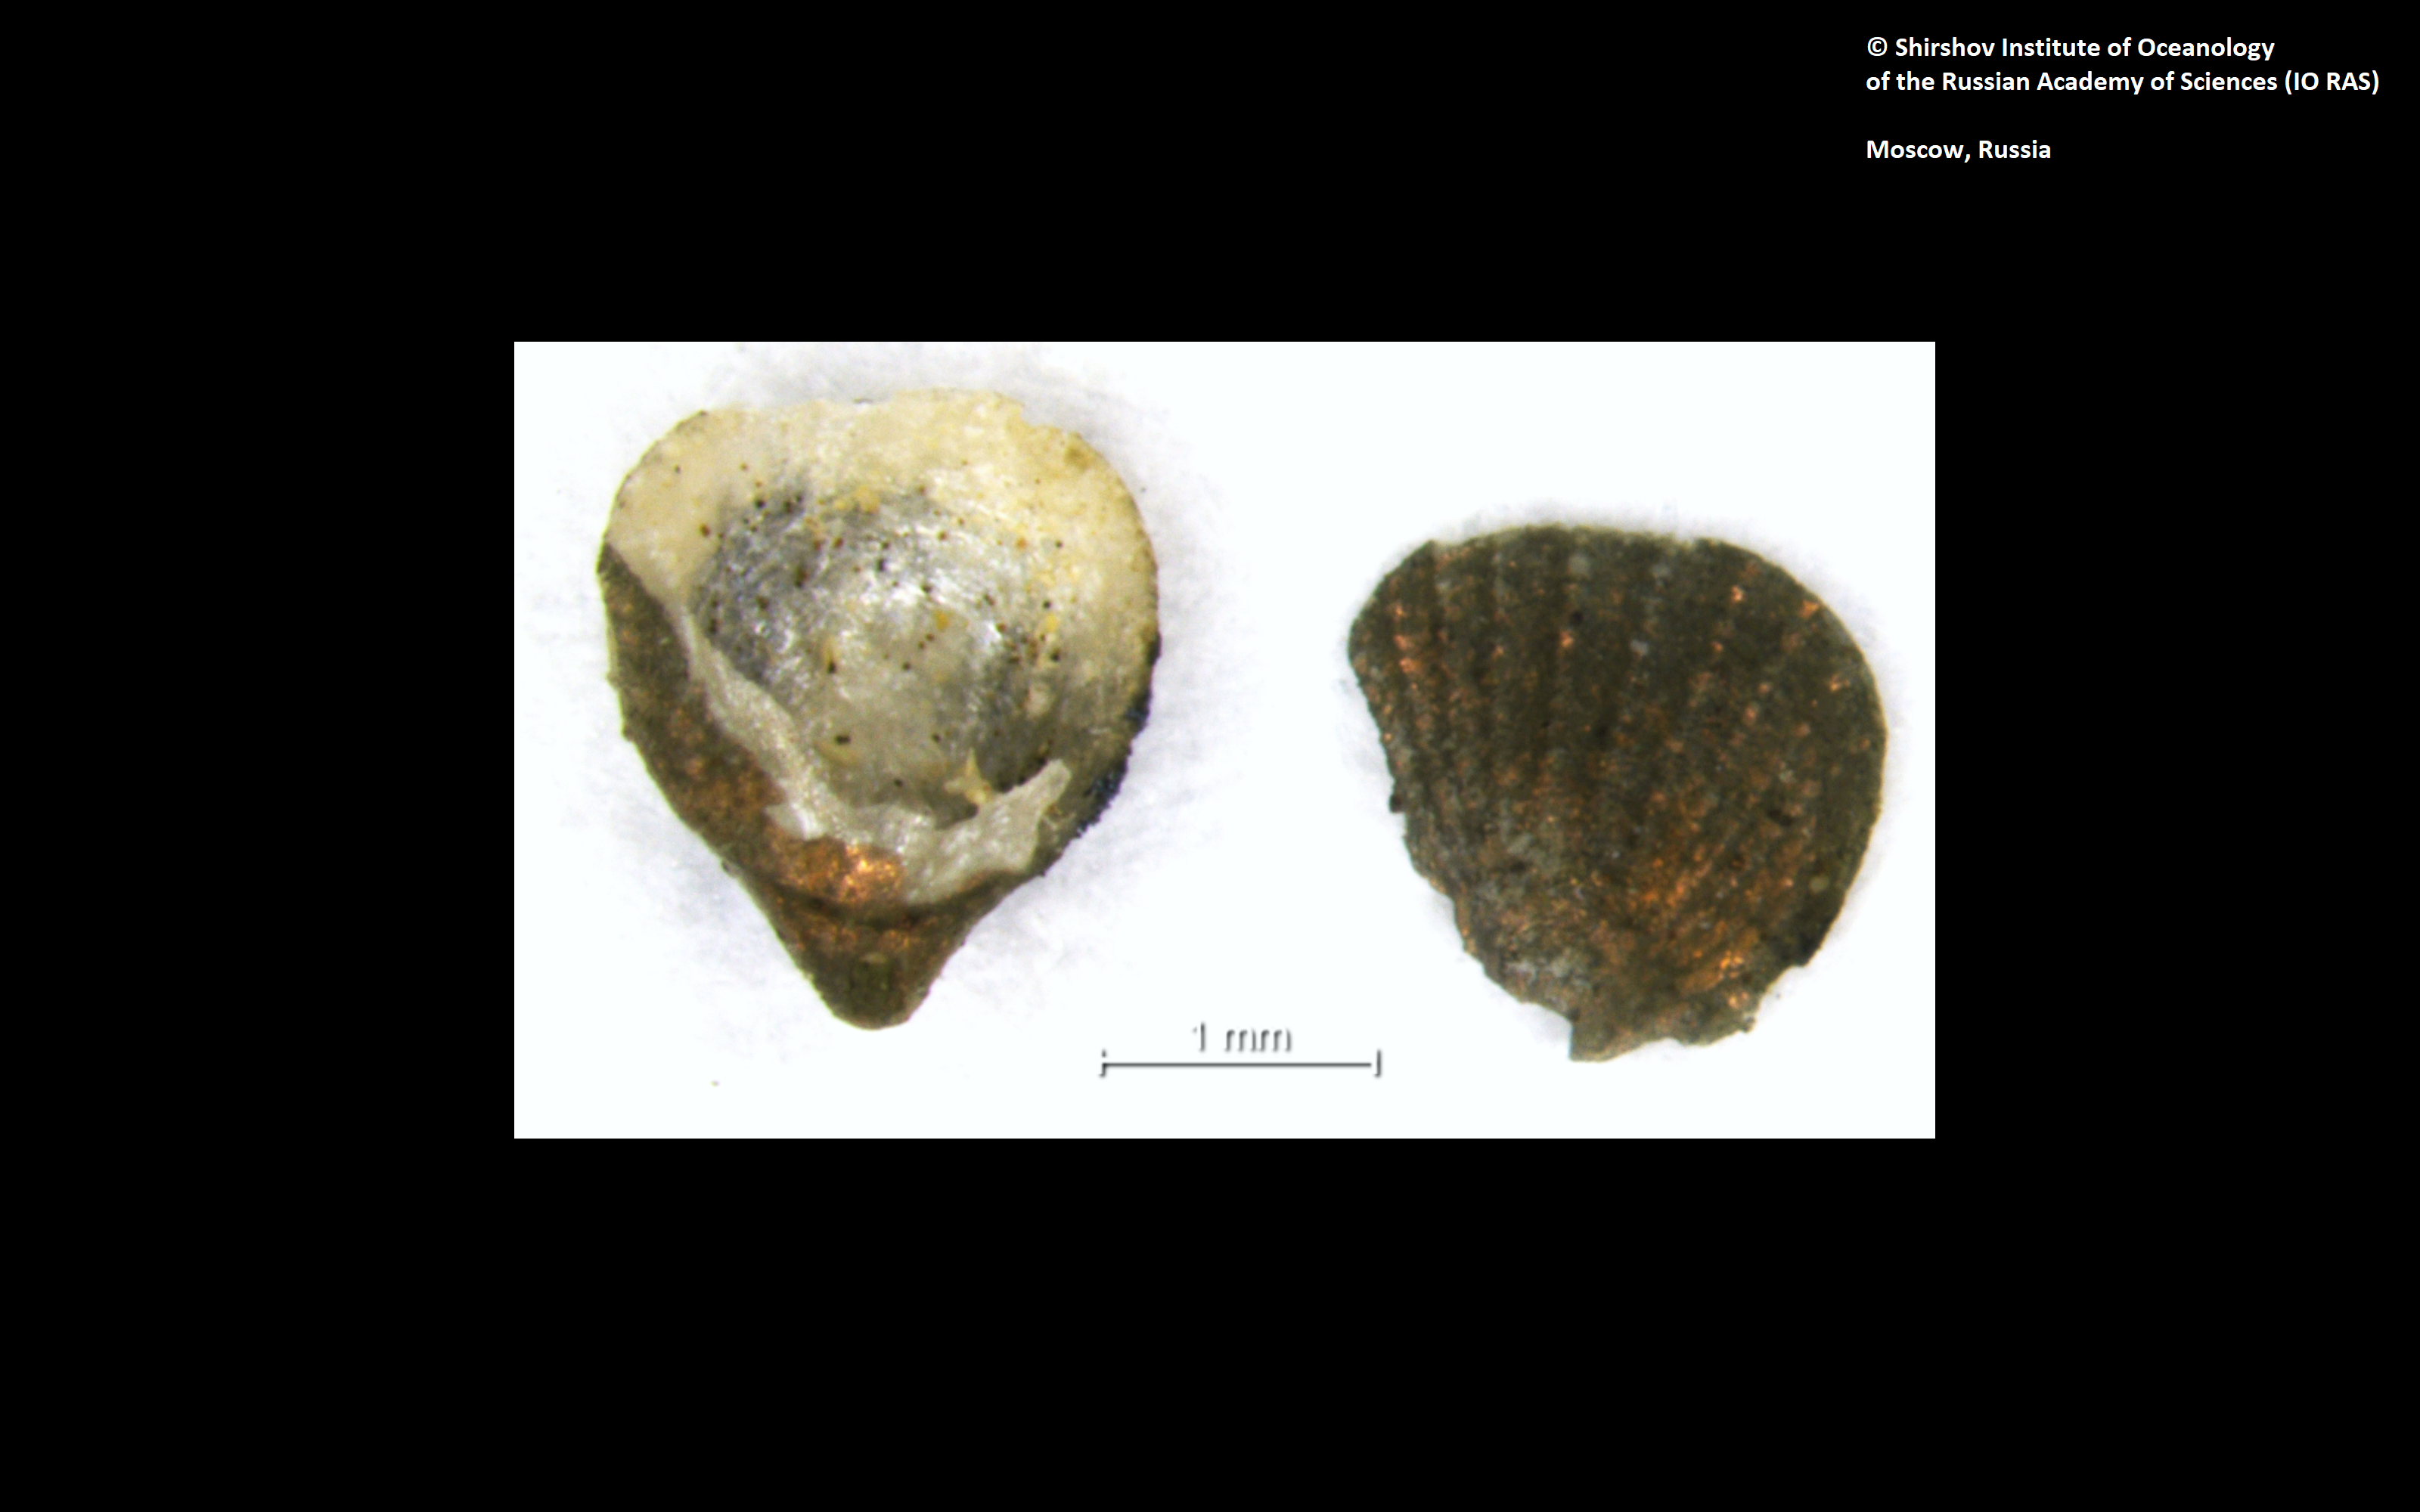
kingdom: Animalia
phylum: Brachiopoda
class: Rhynchonellata
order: Terebratulida
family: Chlidonophoridae
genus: Nanacalathis
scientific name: Nanacalathis minuta
